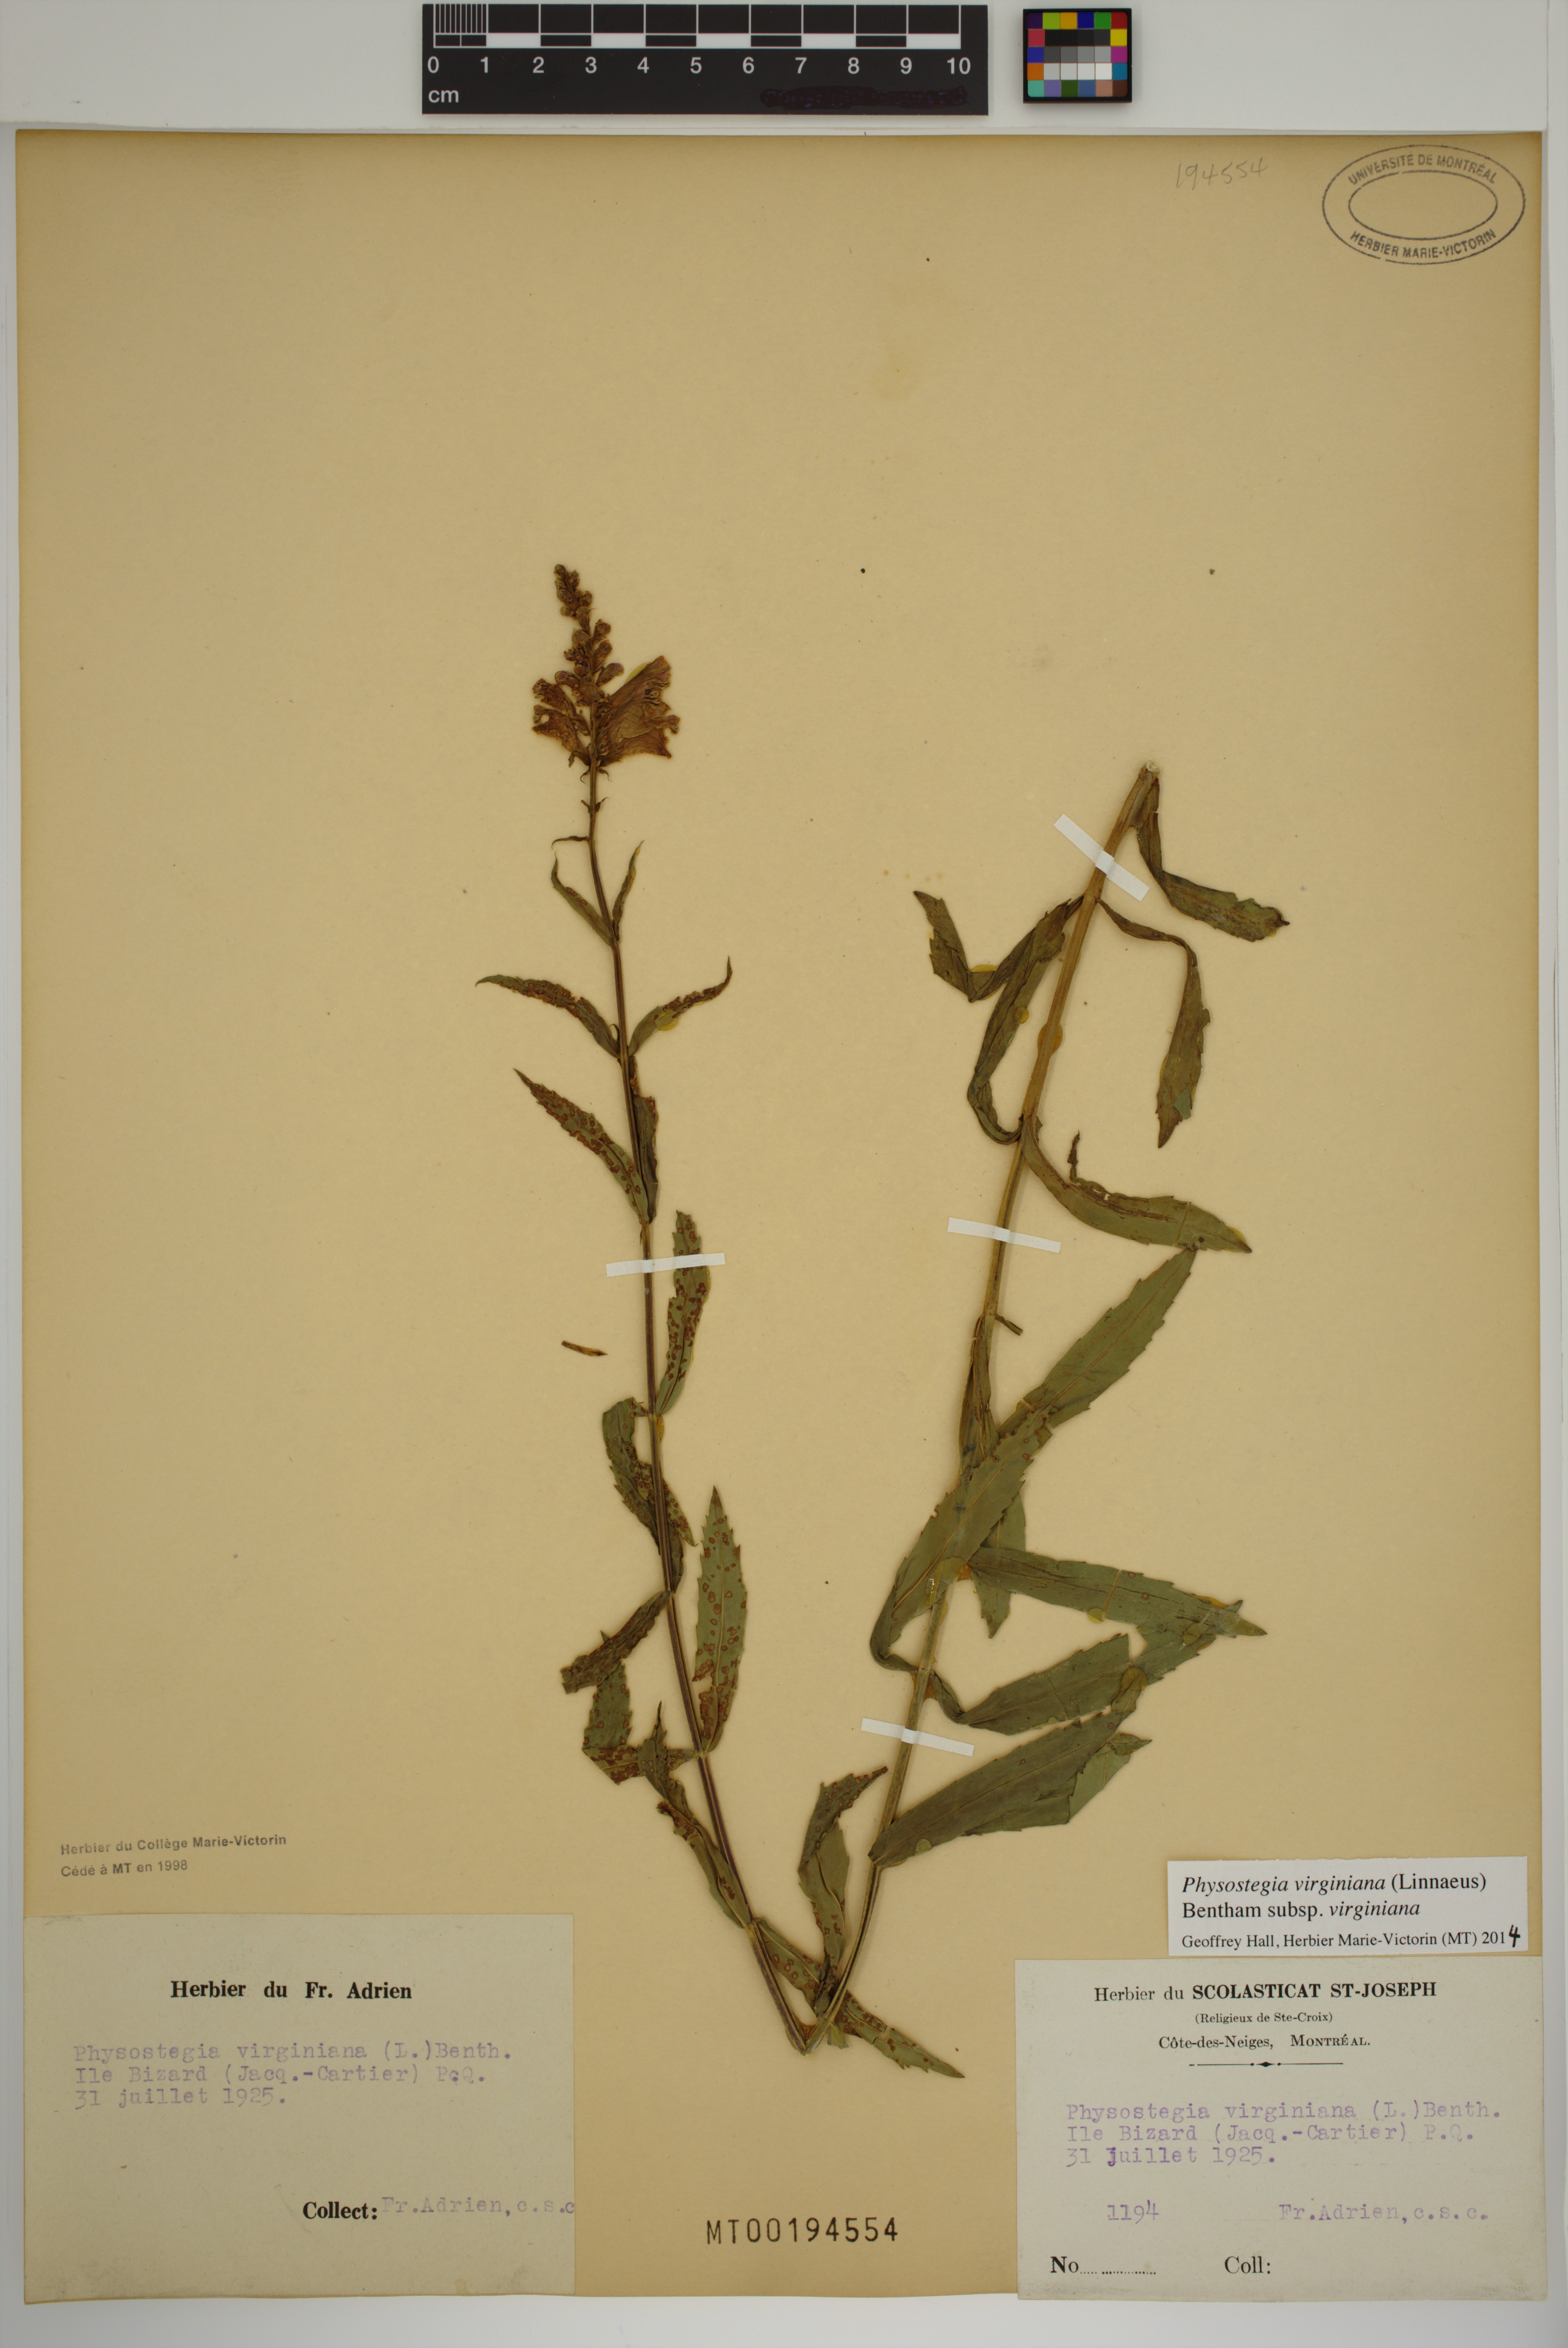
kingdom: Plantae
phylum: Tracheophyta
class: Magnoliopsida
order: Lamiales
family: Lamiaceae
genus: Physostegia
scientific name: Physostegia virginiana
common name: Obedient-plant
